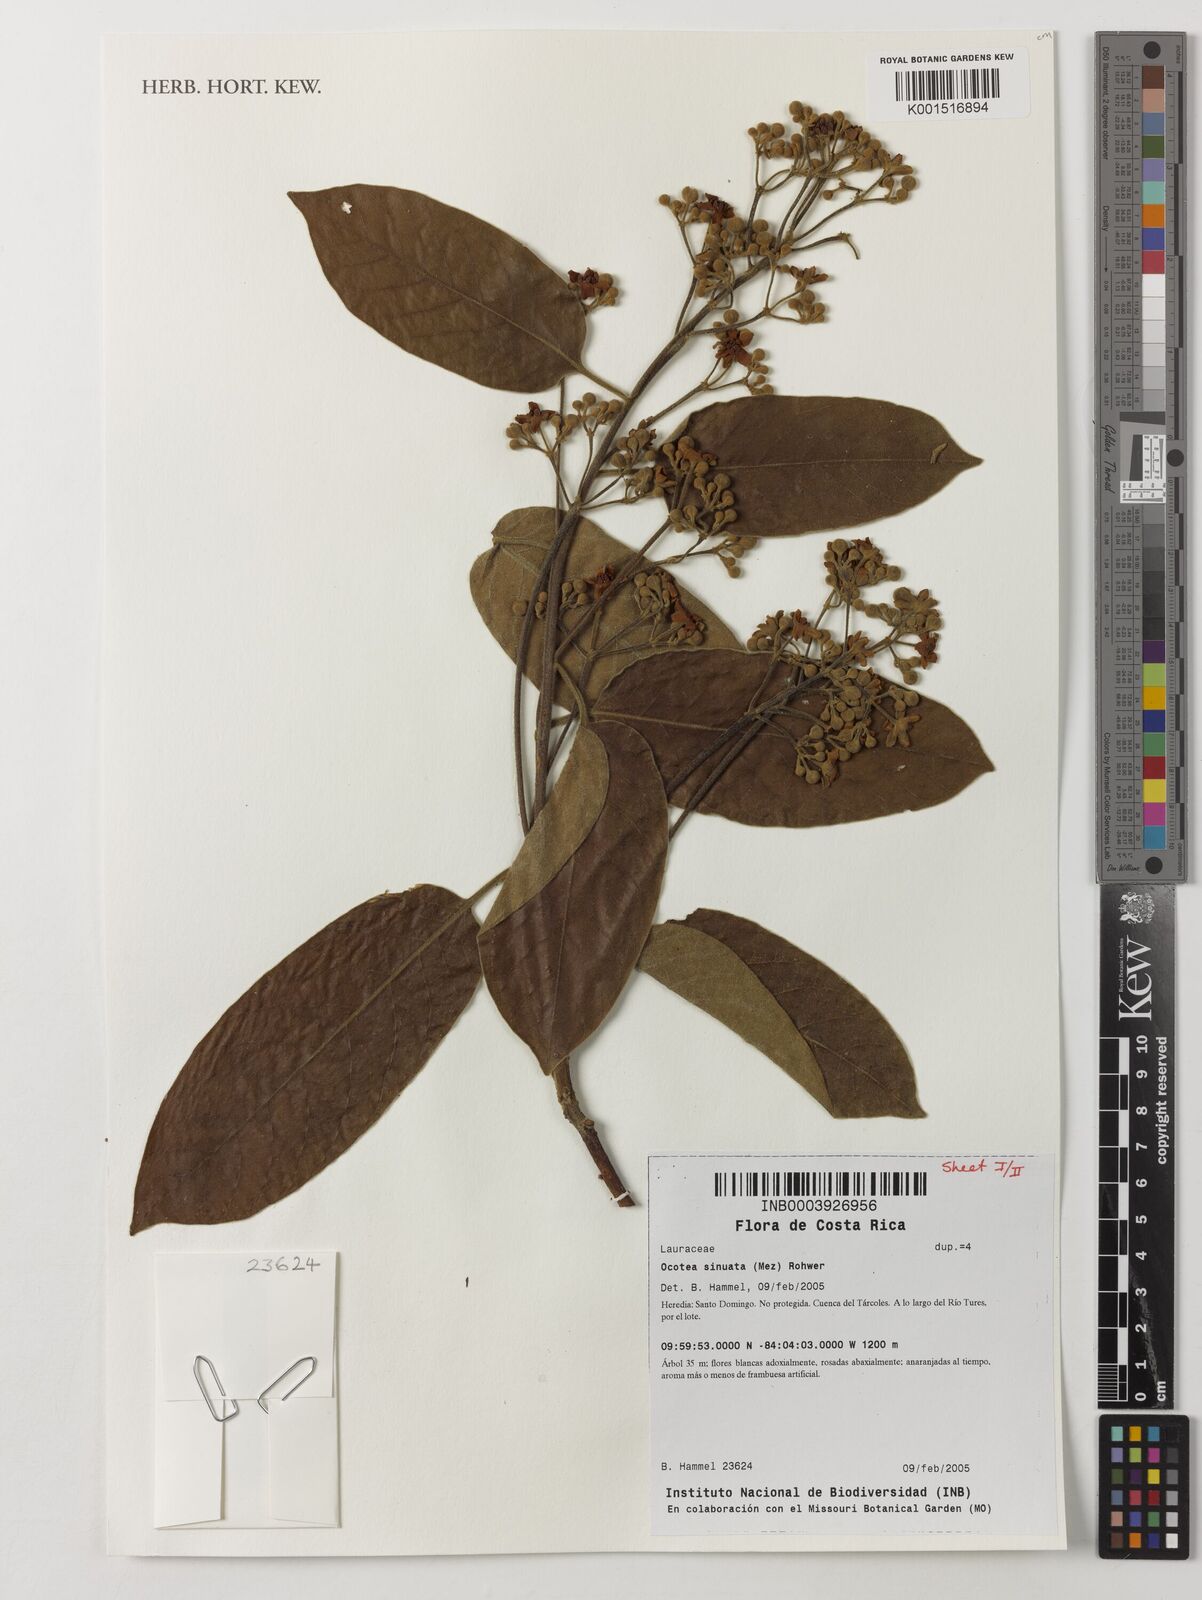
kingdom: Plantae
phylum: Tracheophyta
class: Magnoliopsida
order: Laurales
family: Lauraceae
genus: Ocotea
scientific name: Ocotea sinuata
